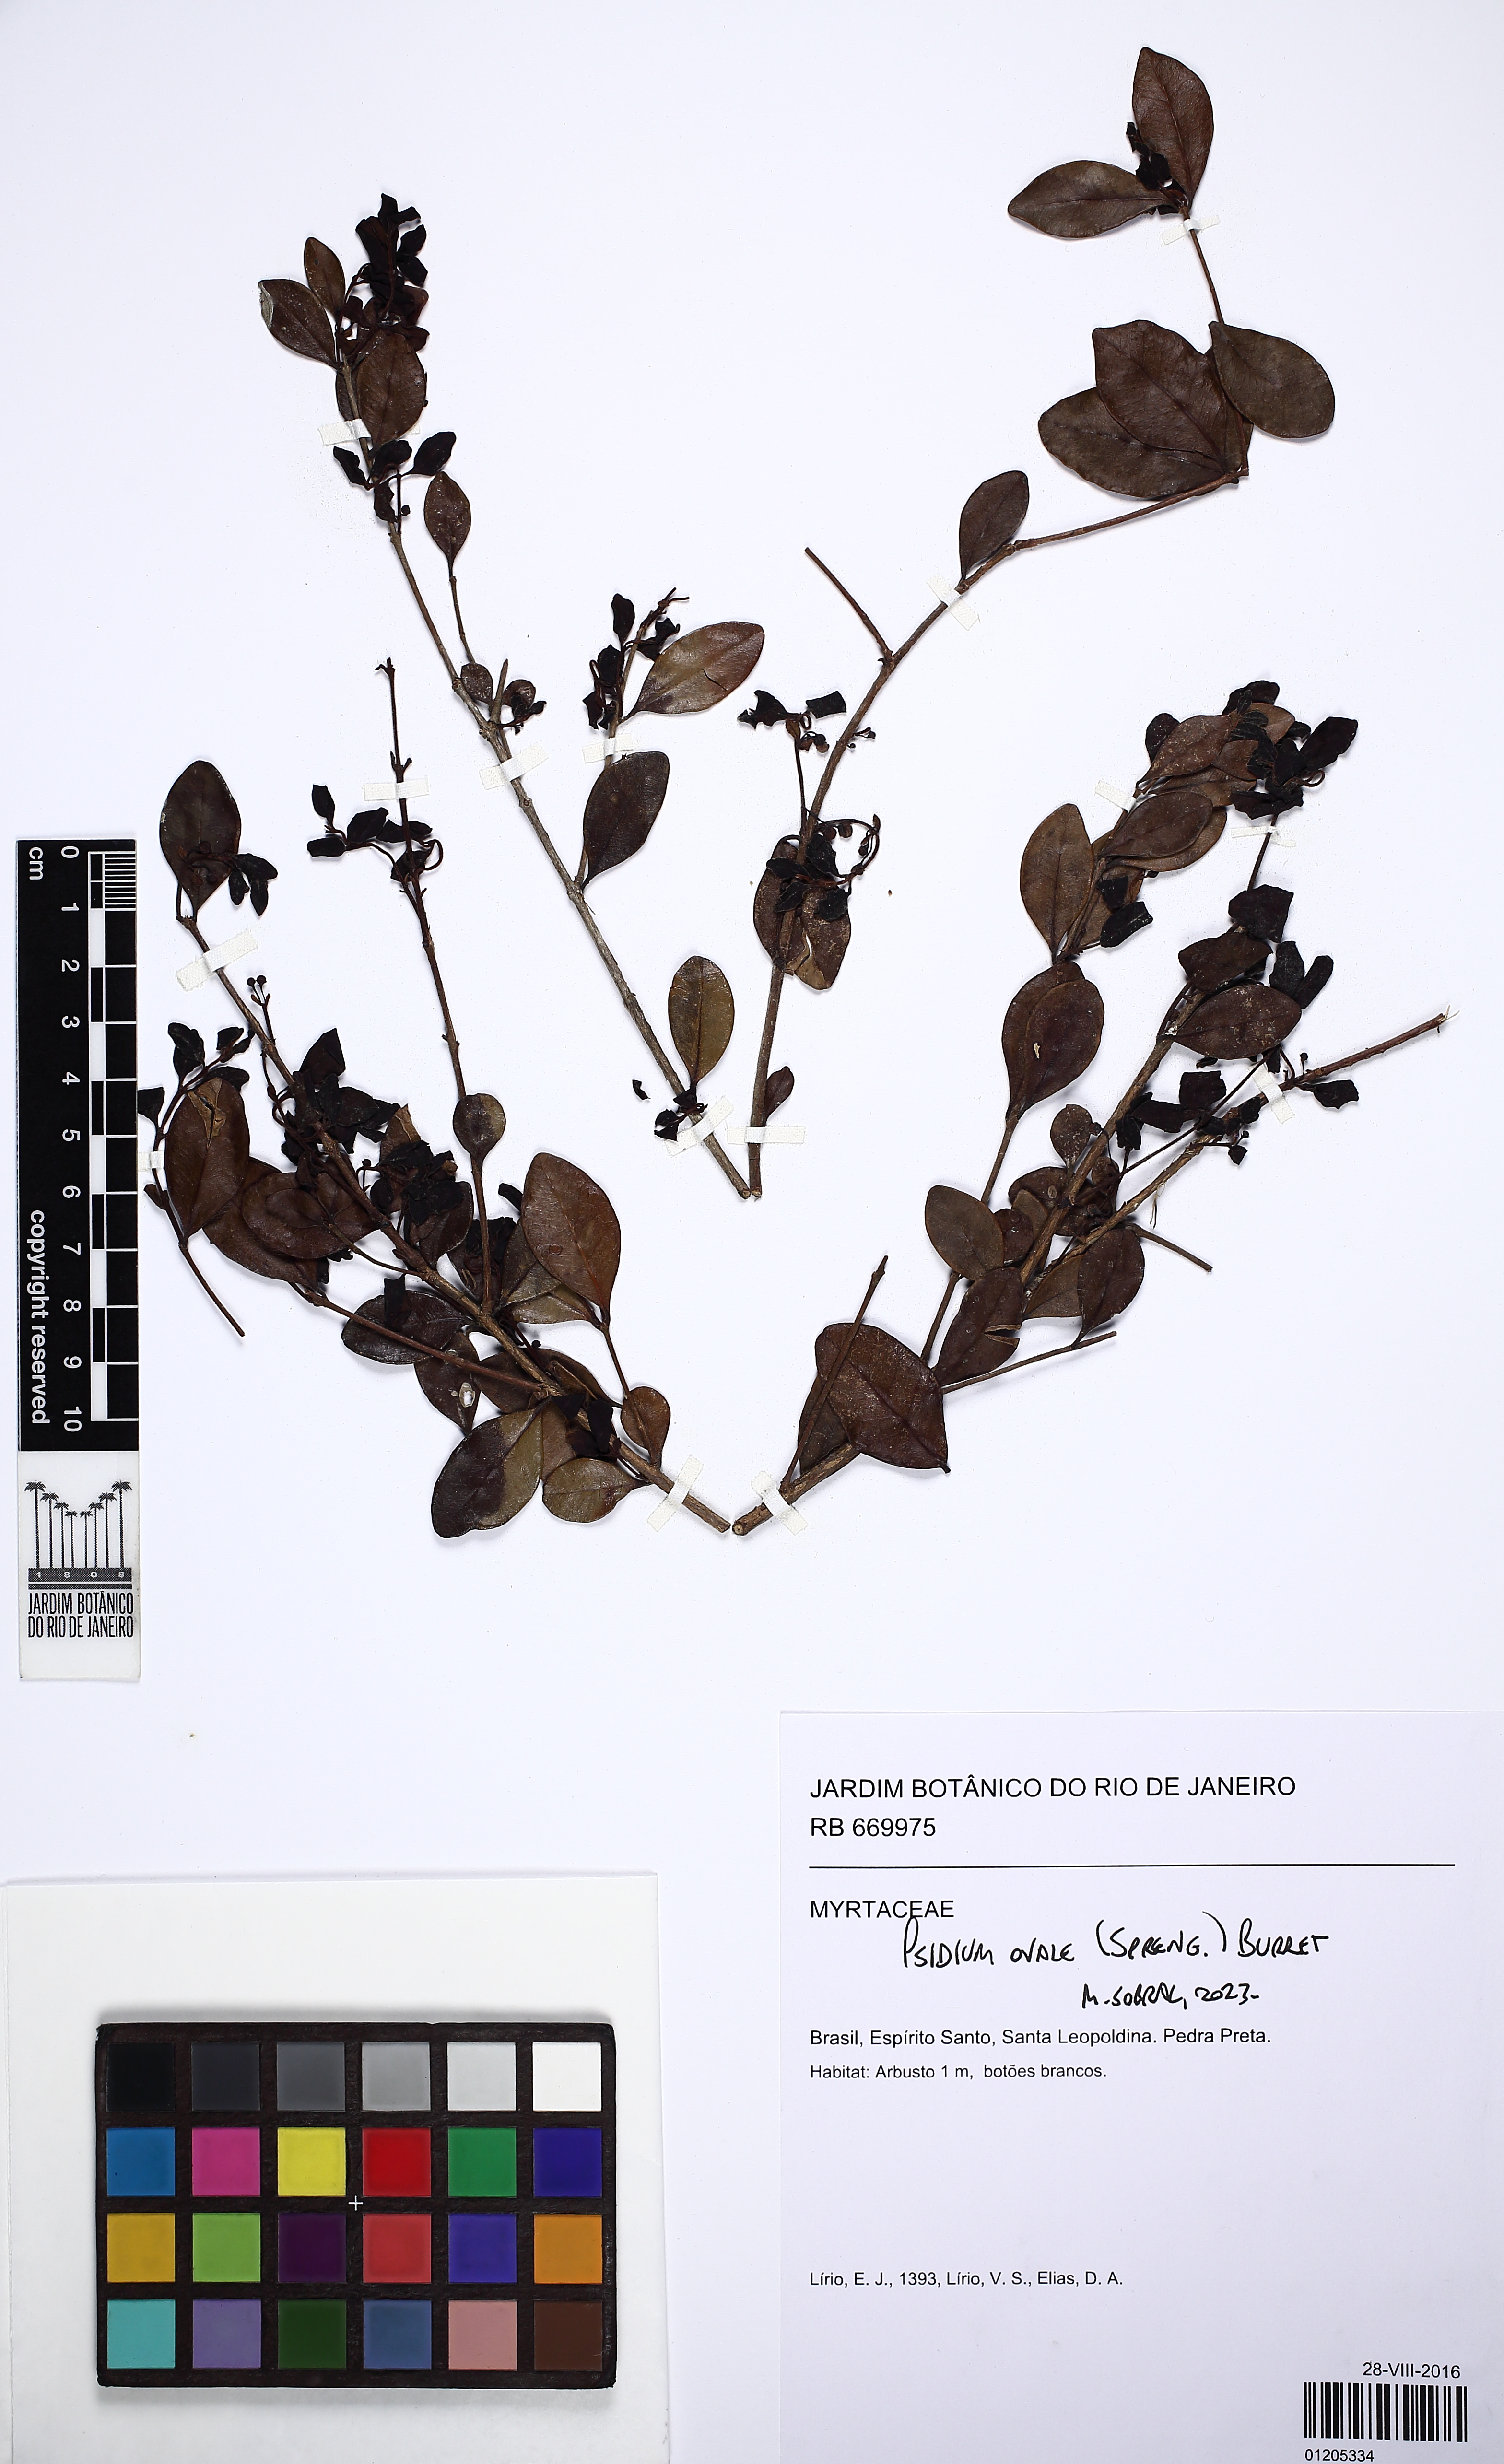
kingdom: Plantae
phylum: Tracheophyta
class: Magnoliopsida
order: Myrtales
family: Myrtaceae
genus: Psidium
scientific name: Psidium ovale
